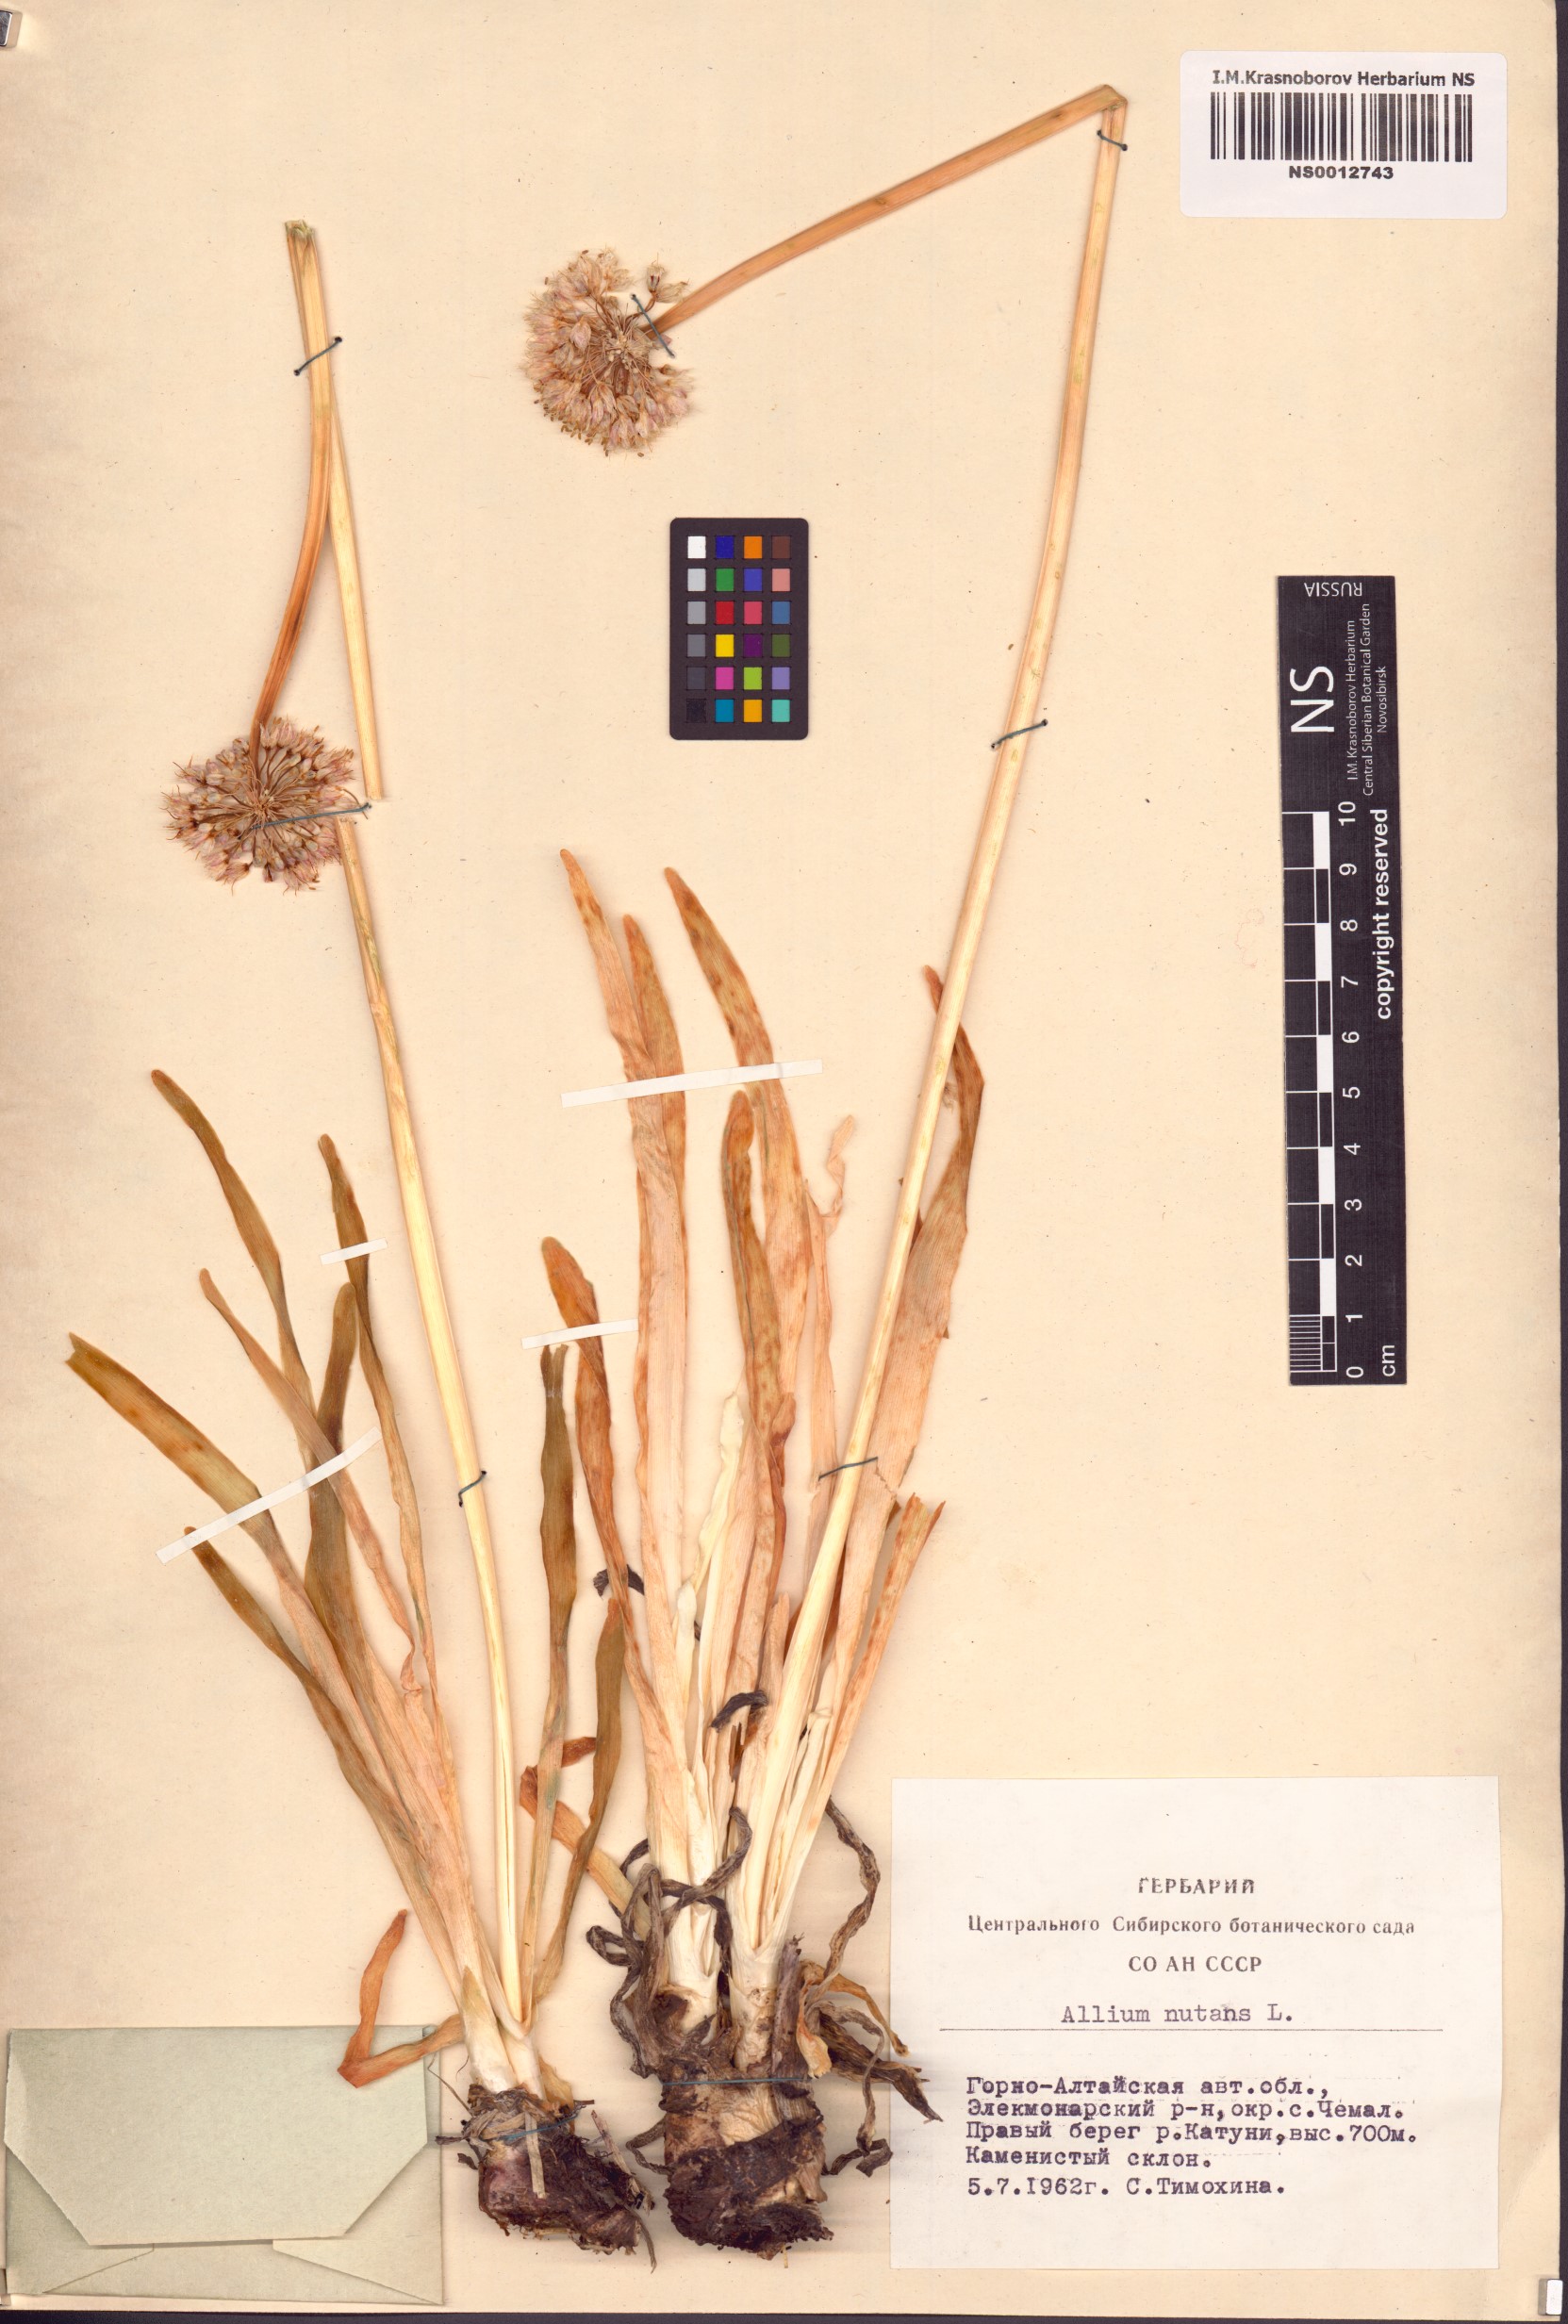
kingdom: Plantae
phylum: Tracheophyta
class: Liliopsida
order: Asparagales
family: Amaryllidaceae
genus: Allium
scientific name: Allium nutans
